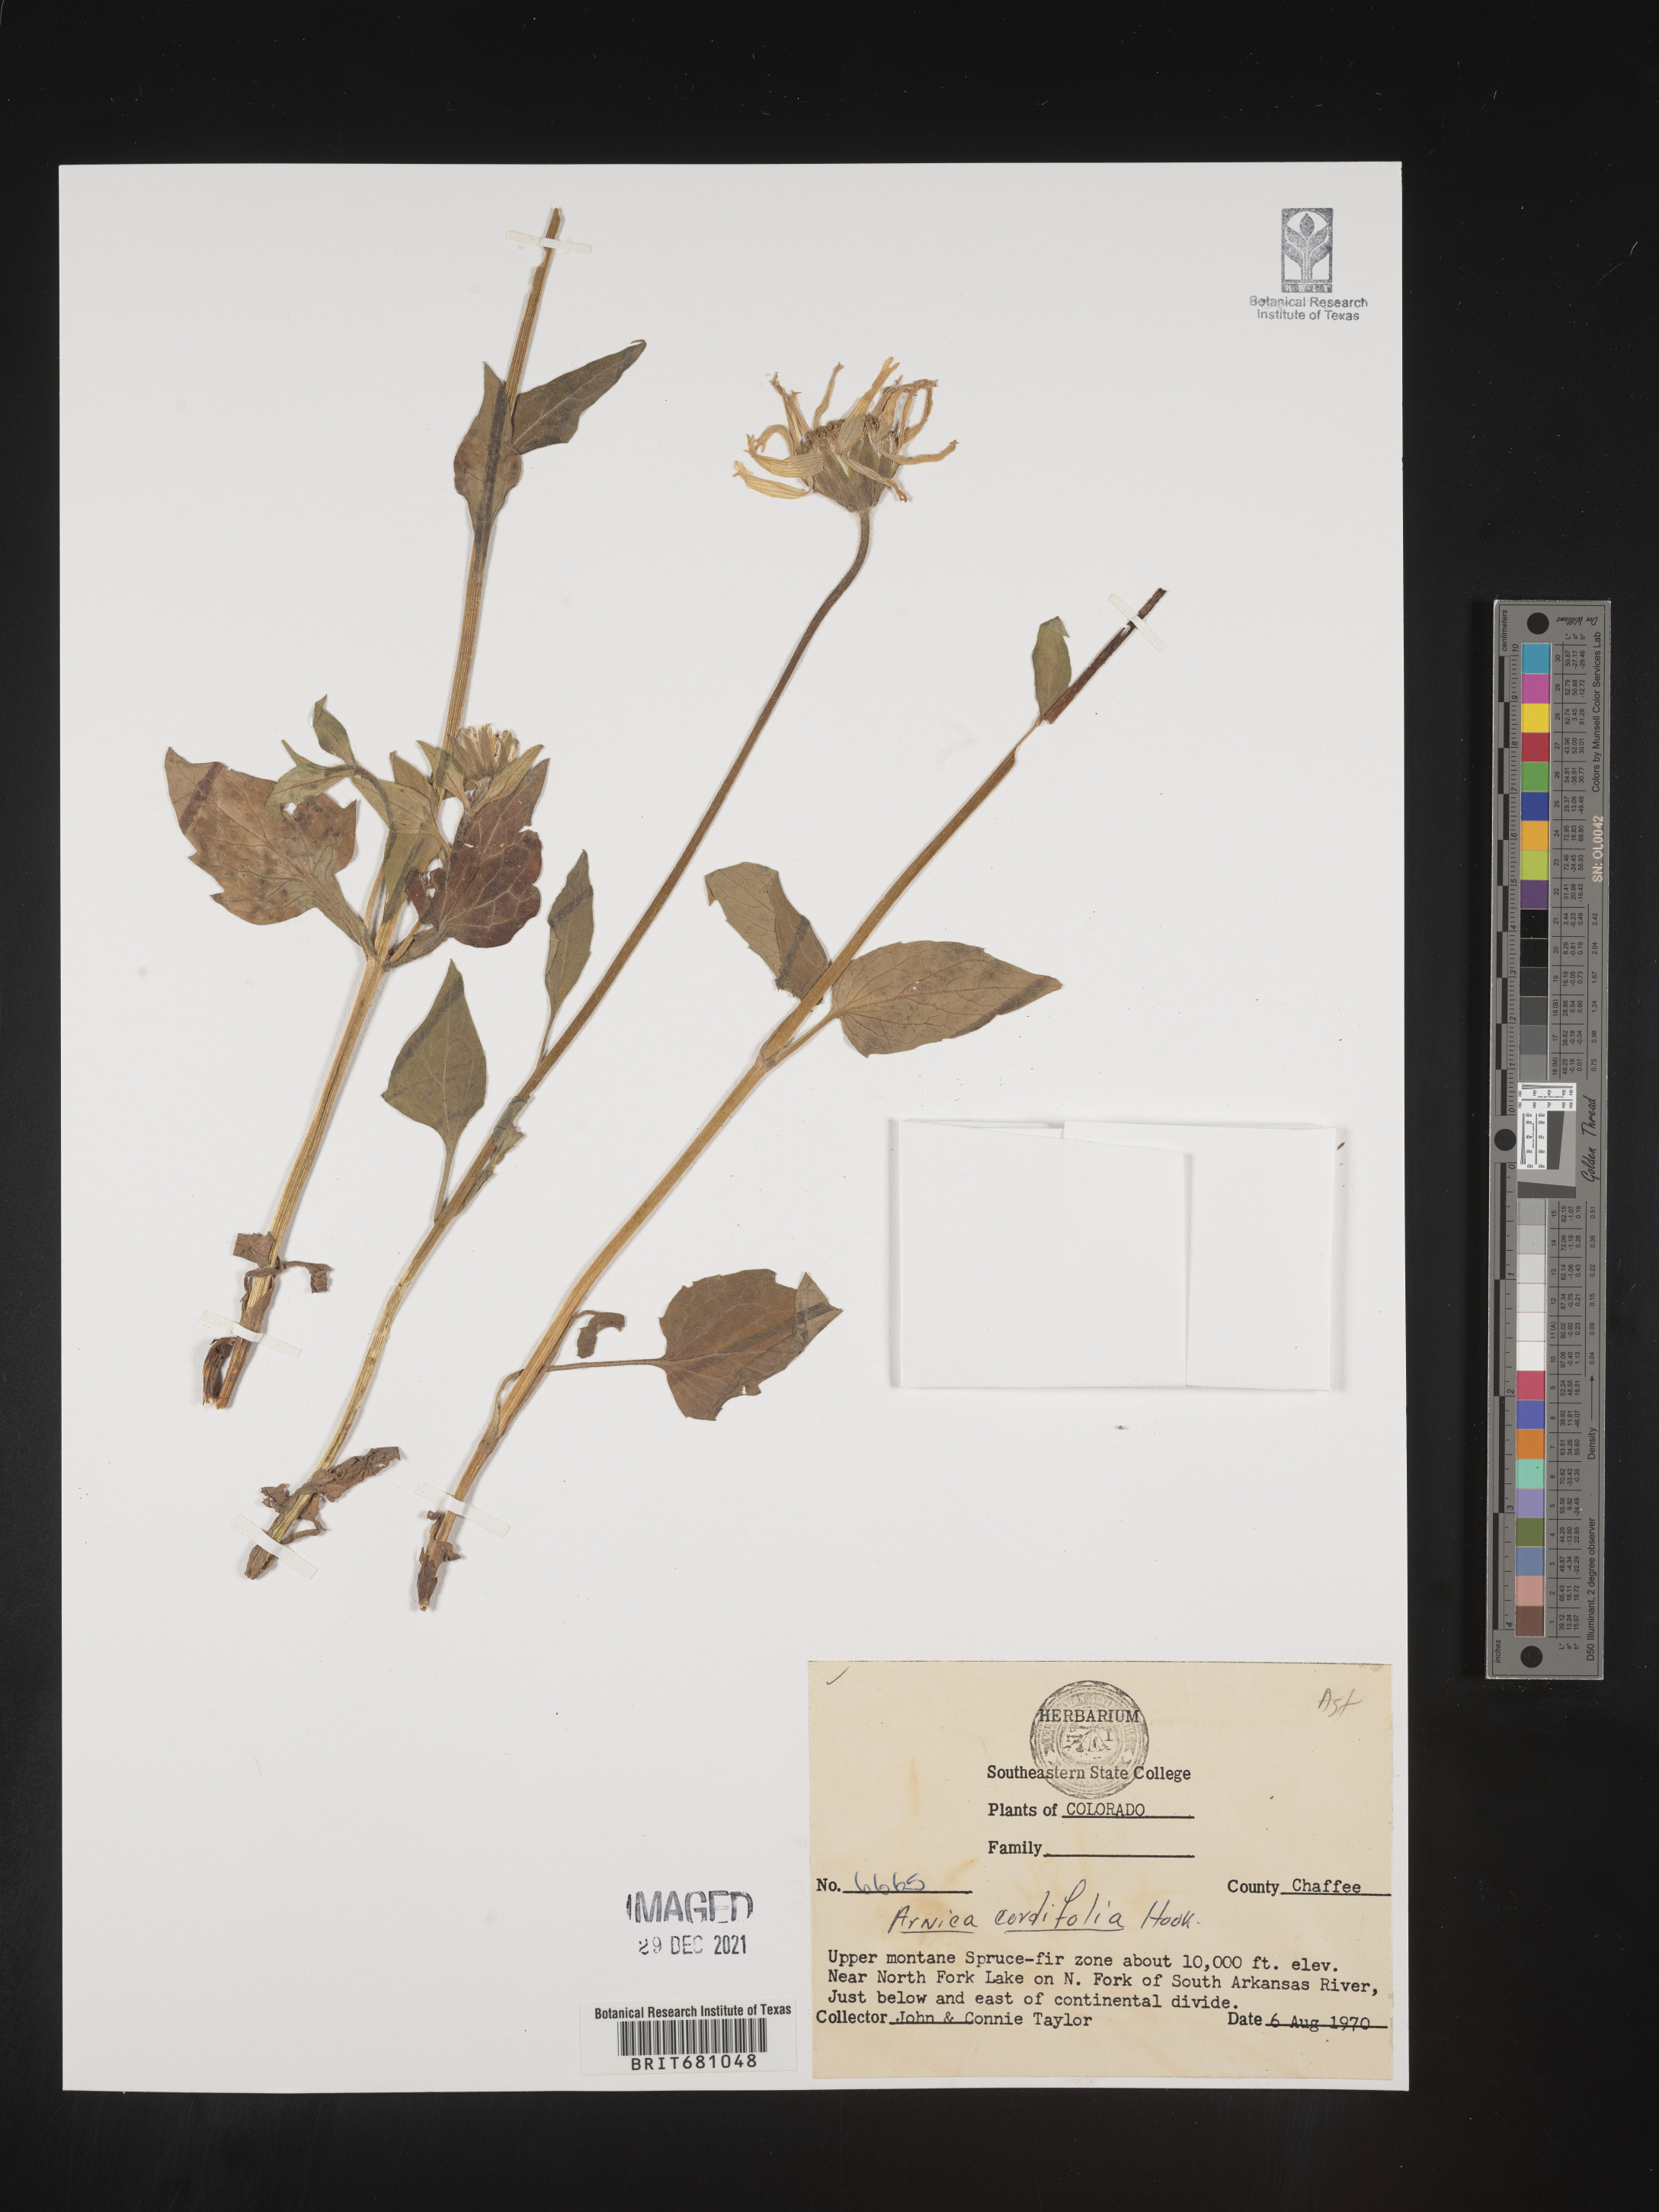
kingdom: Plantae
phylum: Tracheophyta
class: Magnoliopsida
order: Asterales
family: Asteraceae
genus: Arnica
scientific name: Arnica cordifolia
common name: Heart-leaf arnica
